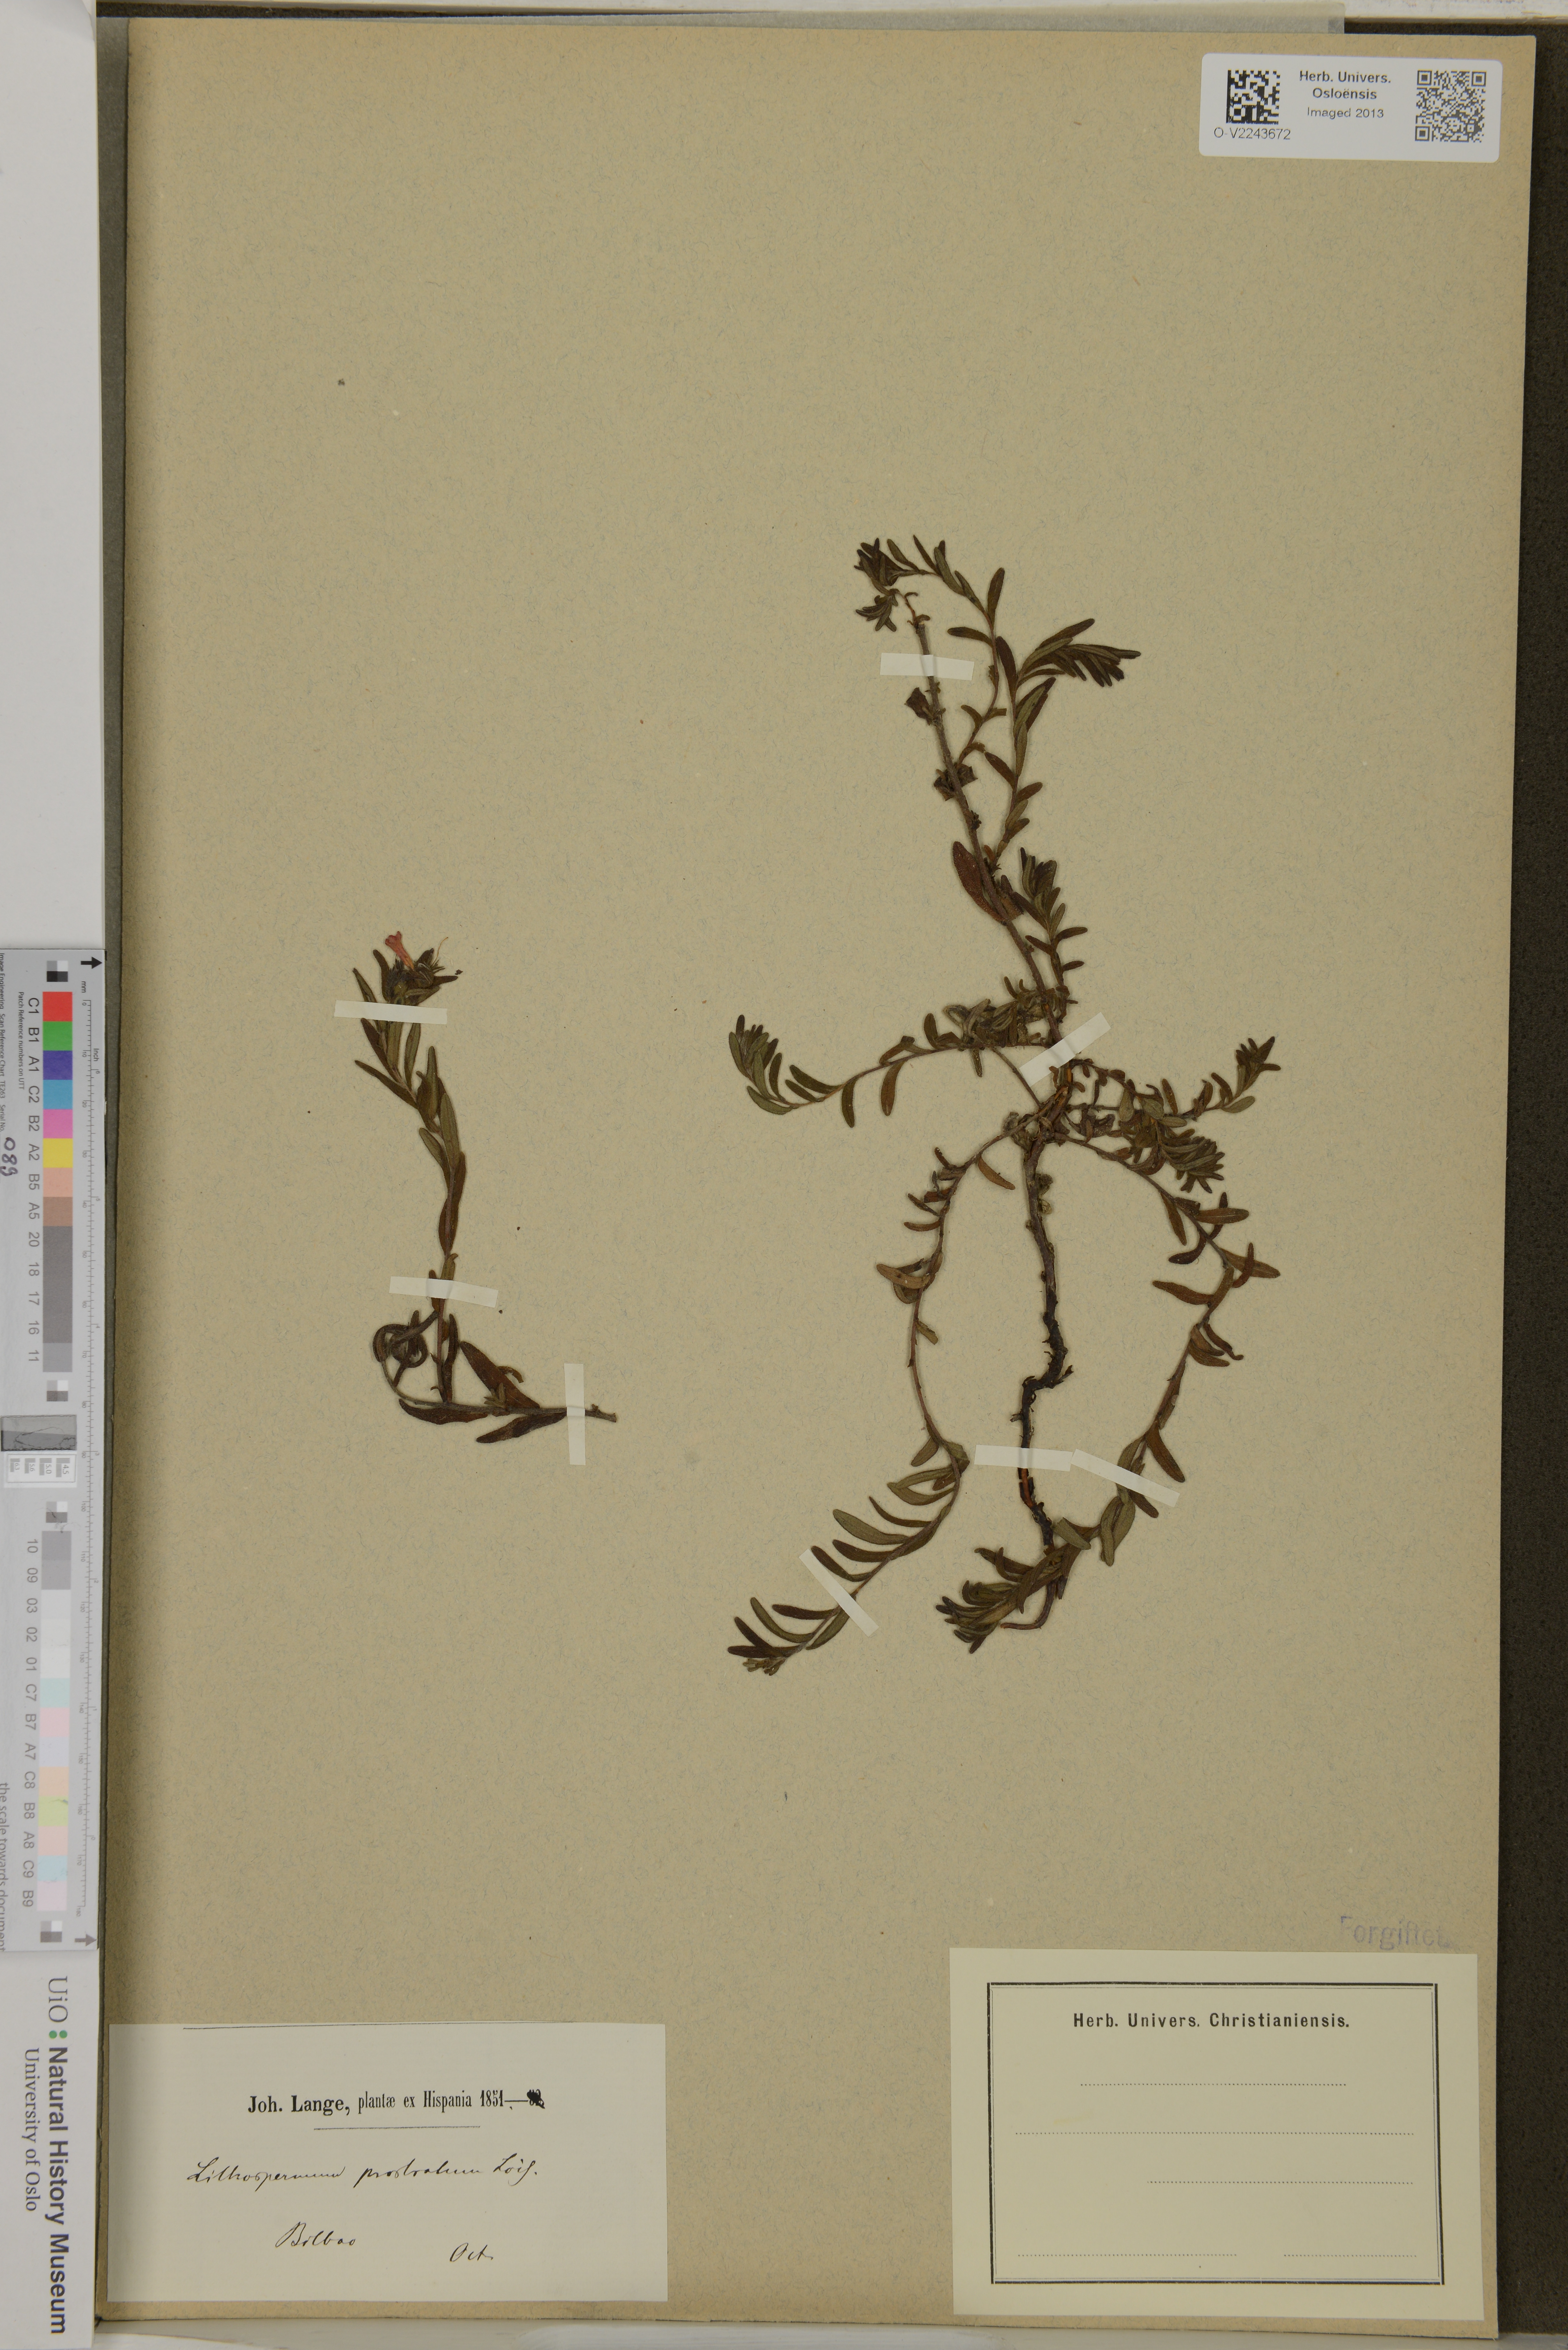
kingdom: Plantae
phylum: Tracheophyta
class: Magnoliopsida
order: Boraginales
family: Boraginaceae
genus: Lithospermum
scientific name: Lithospermum matamorense
